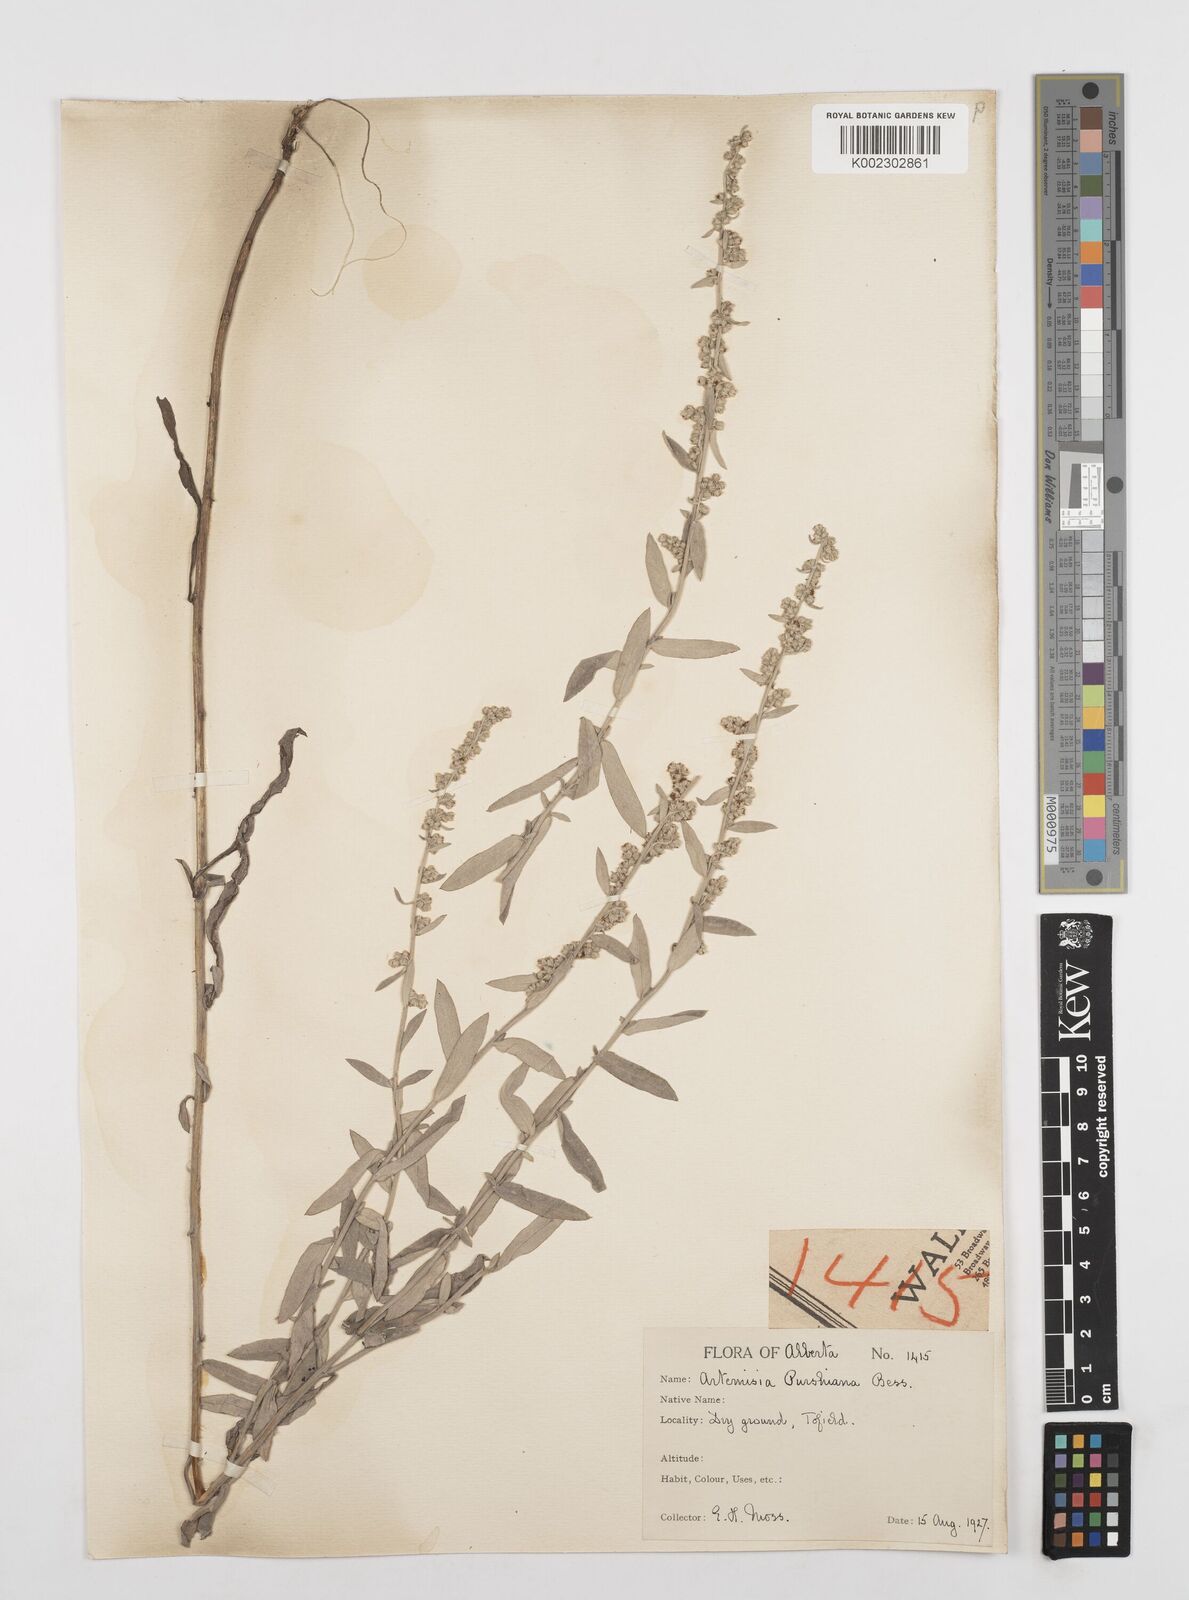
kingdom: Plantae
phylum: Tracheophyta
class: Magnoliopsida
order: Asterales
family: Asteraceae
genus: Artemisia
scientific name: Artemisia
